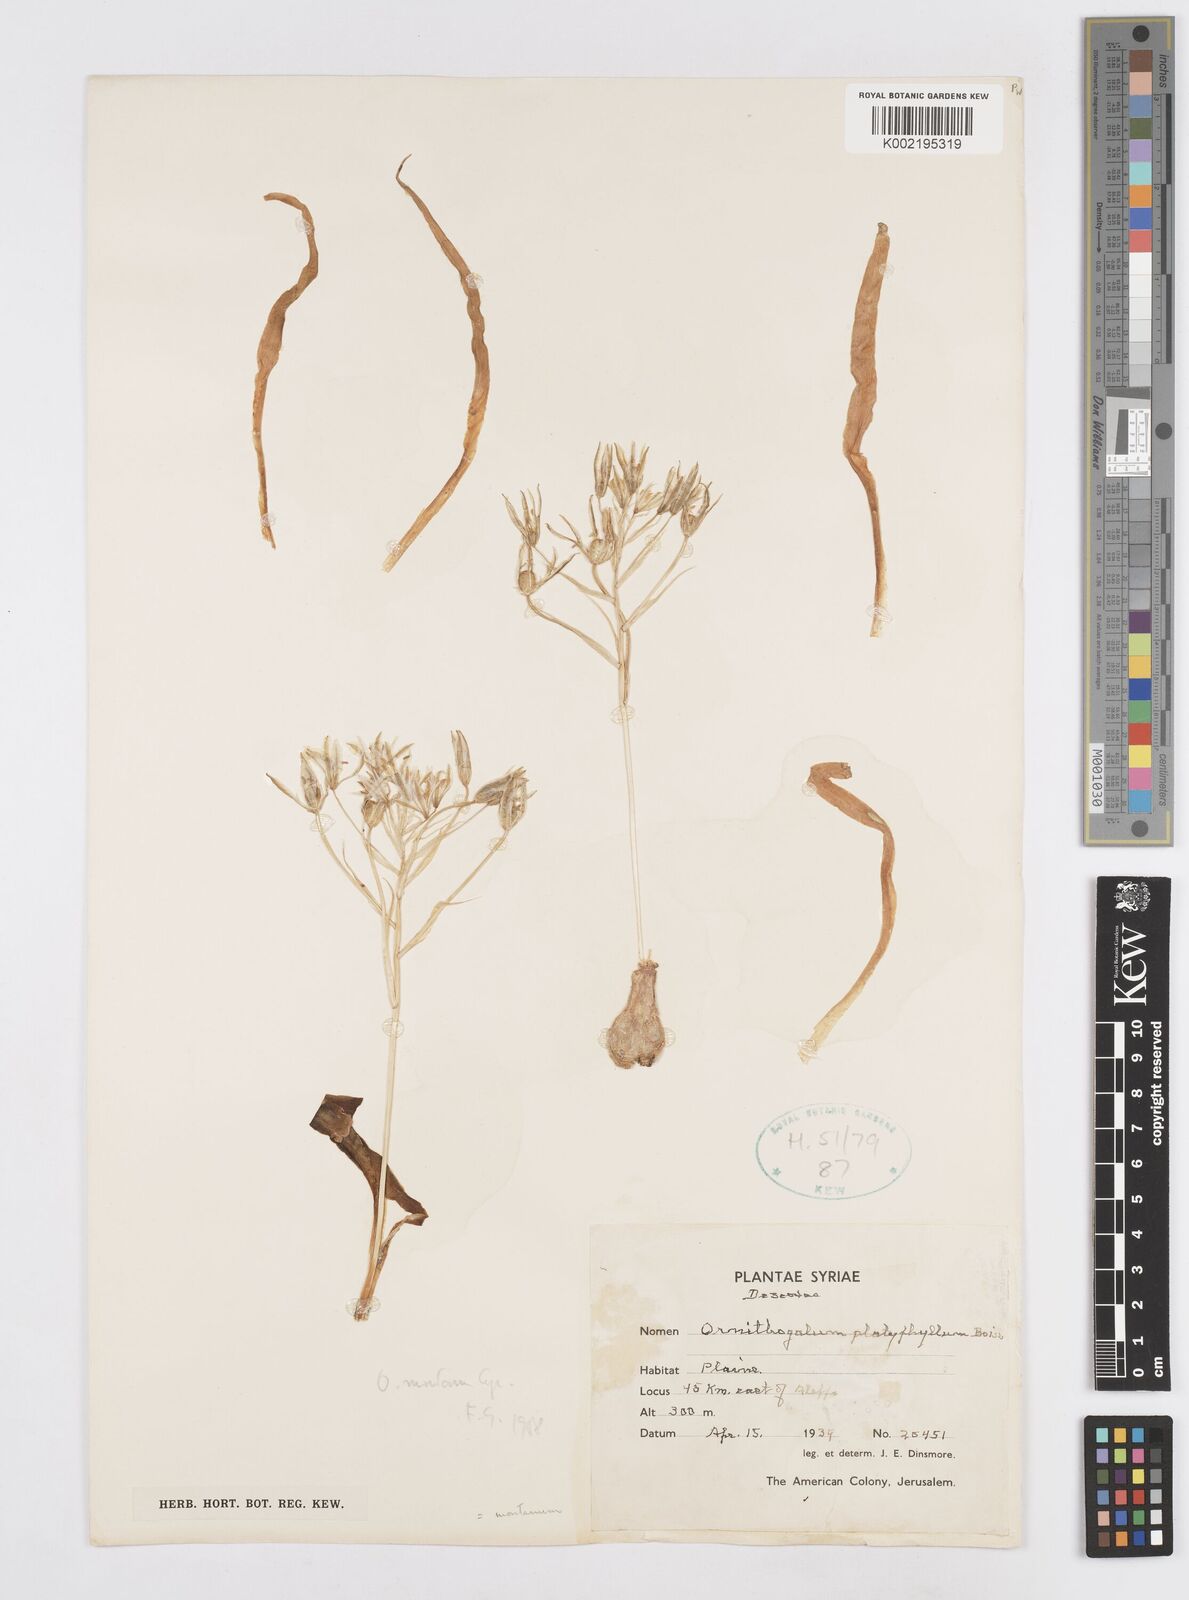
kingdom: Plantae
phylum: Tracheophyta
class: Liliopsida
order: Asparagales
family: Asparagaceae
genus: Ornithogalum
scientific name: Ornithogalum montanum
